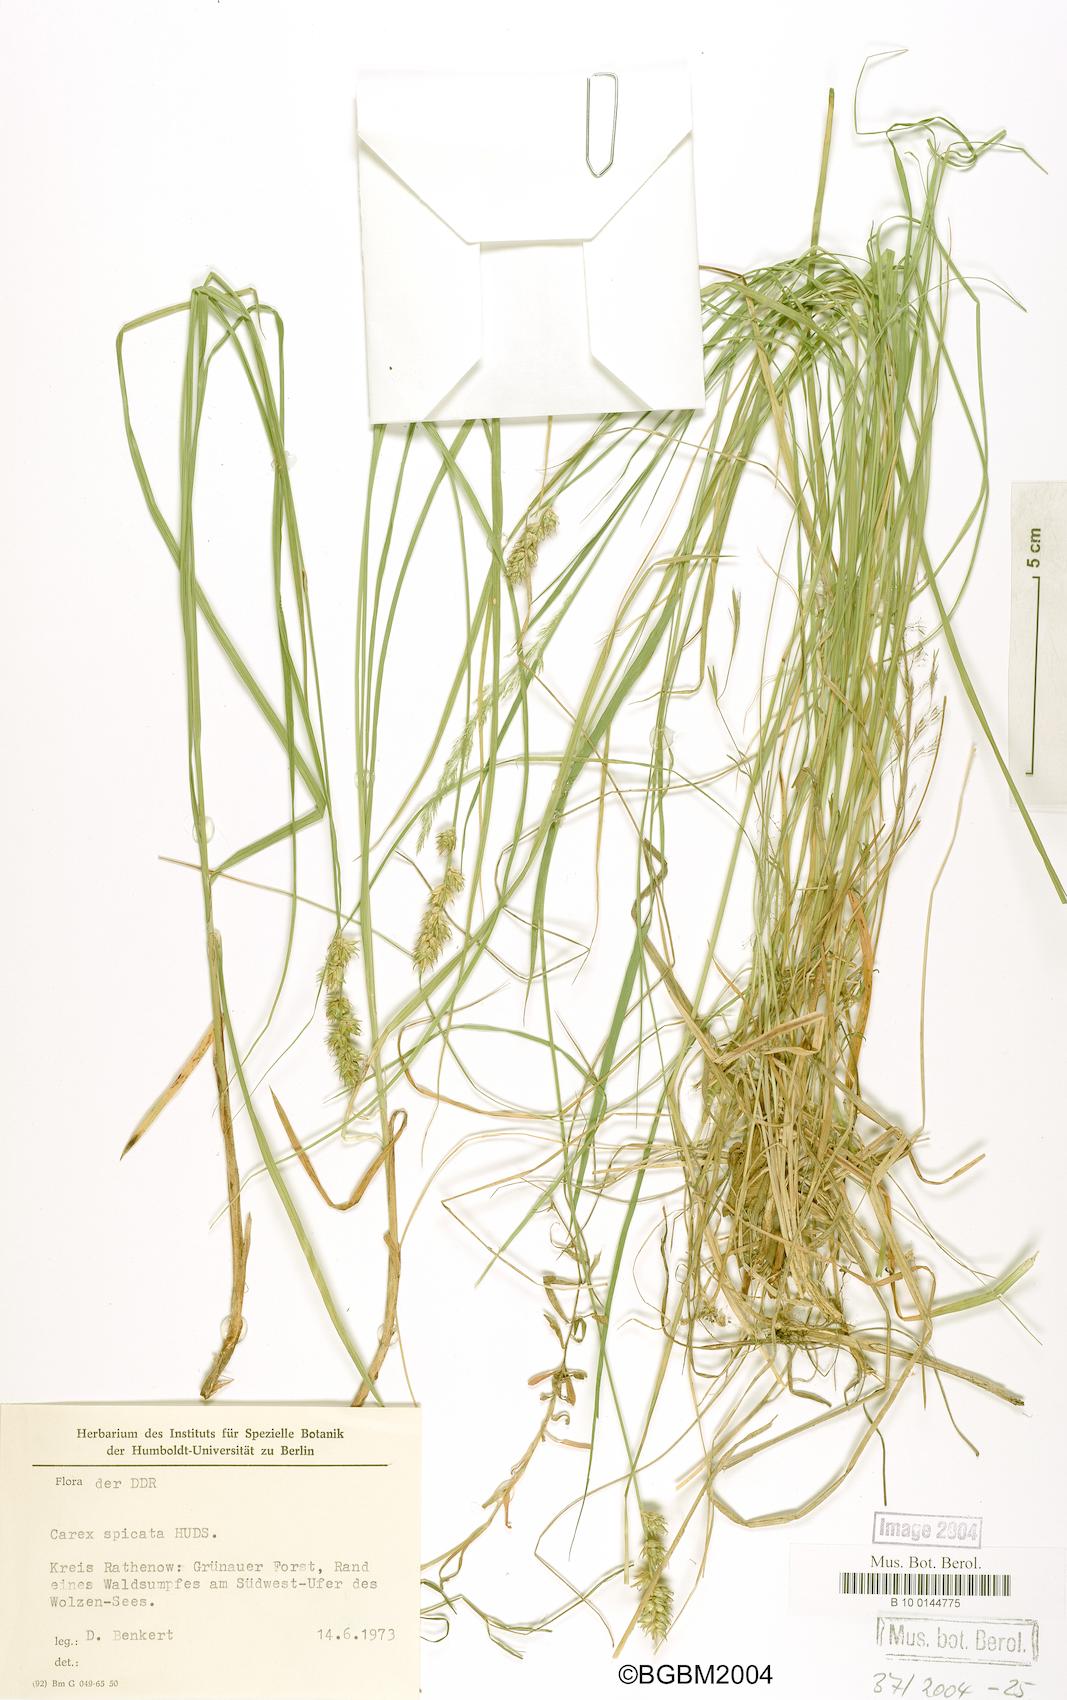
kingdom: Plantae
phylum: Tracheophyta
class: Liliopsida
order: Poales
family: Cyperaceae
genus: Carex
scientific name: Carex spicata
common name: Spiked sedge
